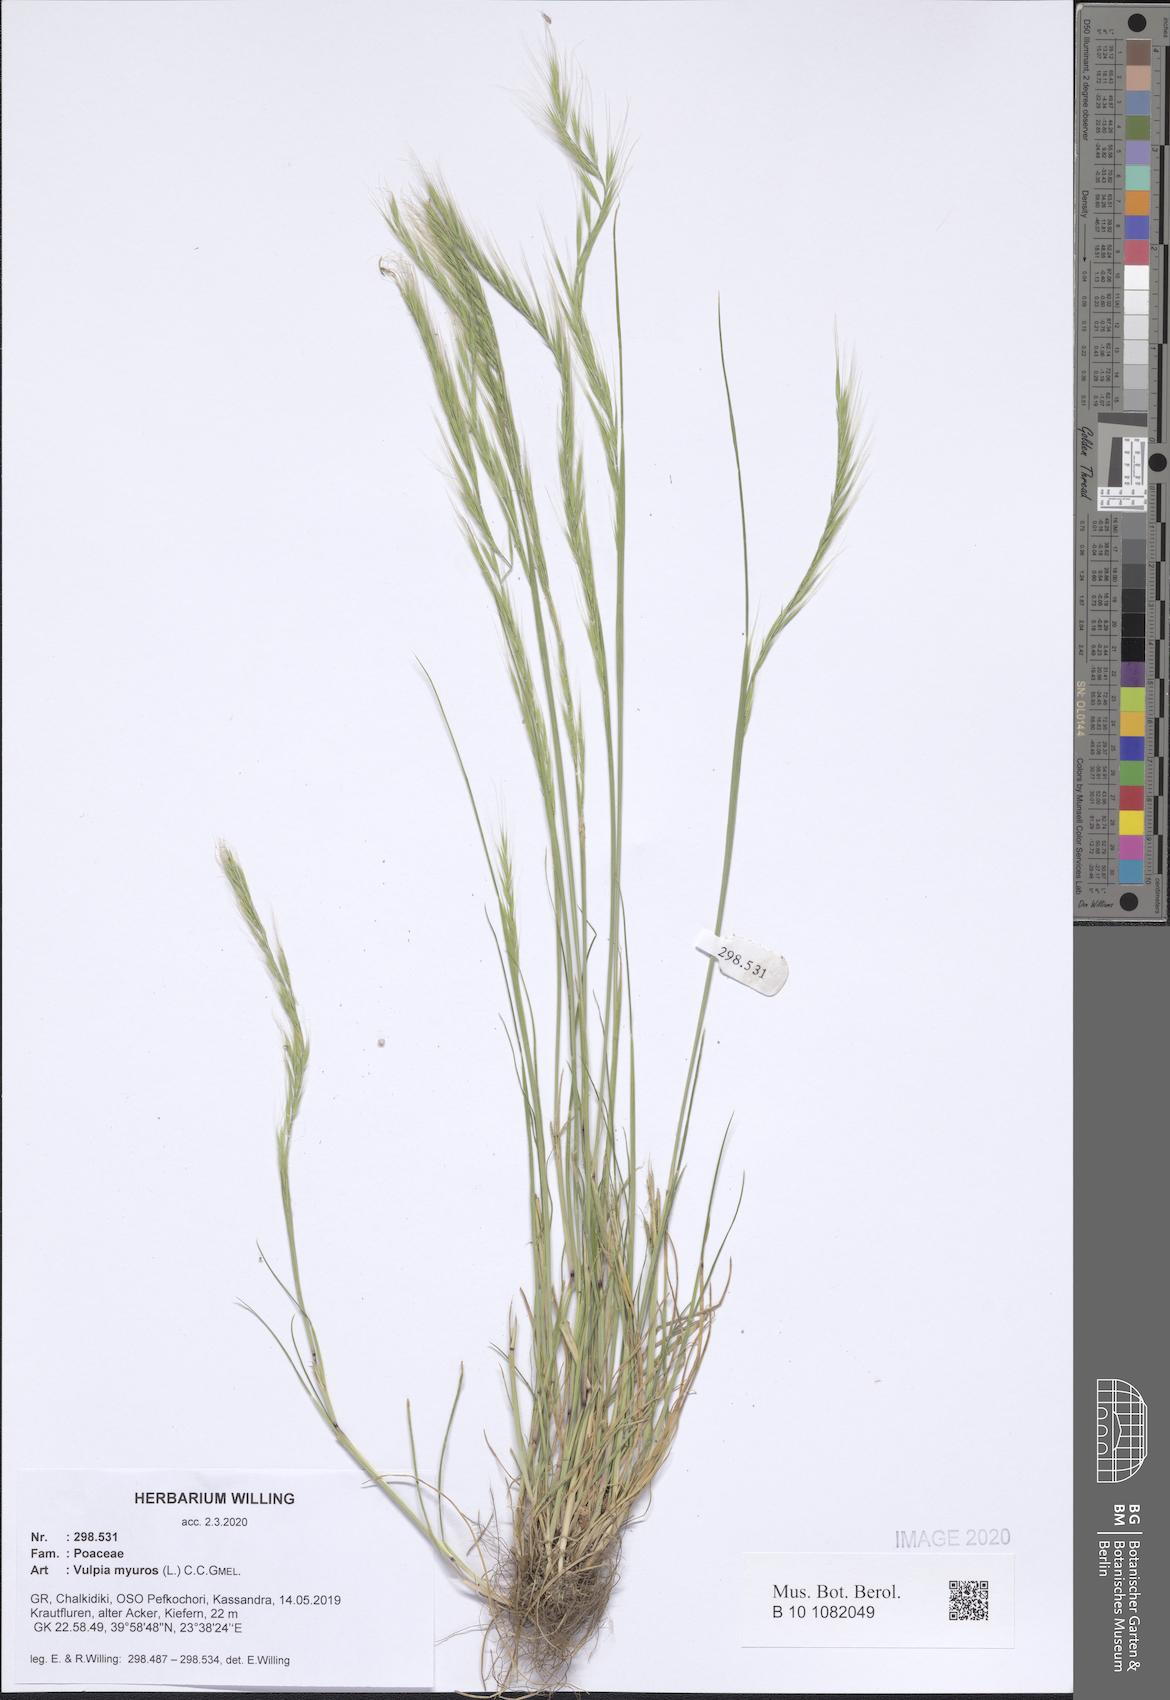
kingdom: Plantae
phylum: Tracheophyta
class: Liliopsida
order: Poales
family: Poaceae
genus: Festuca
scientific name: Festuca myuros
